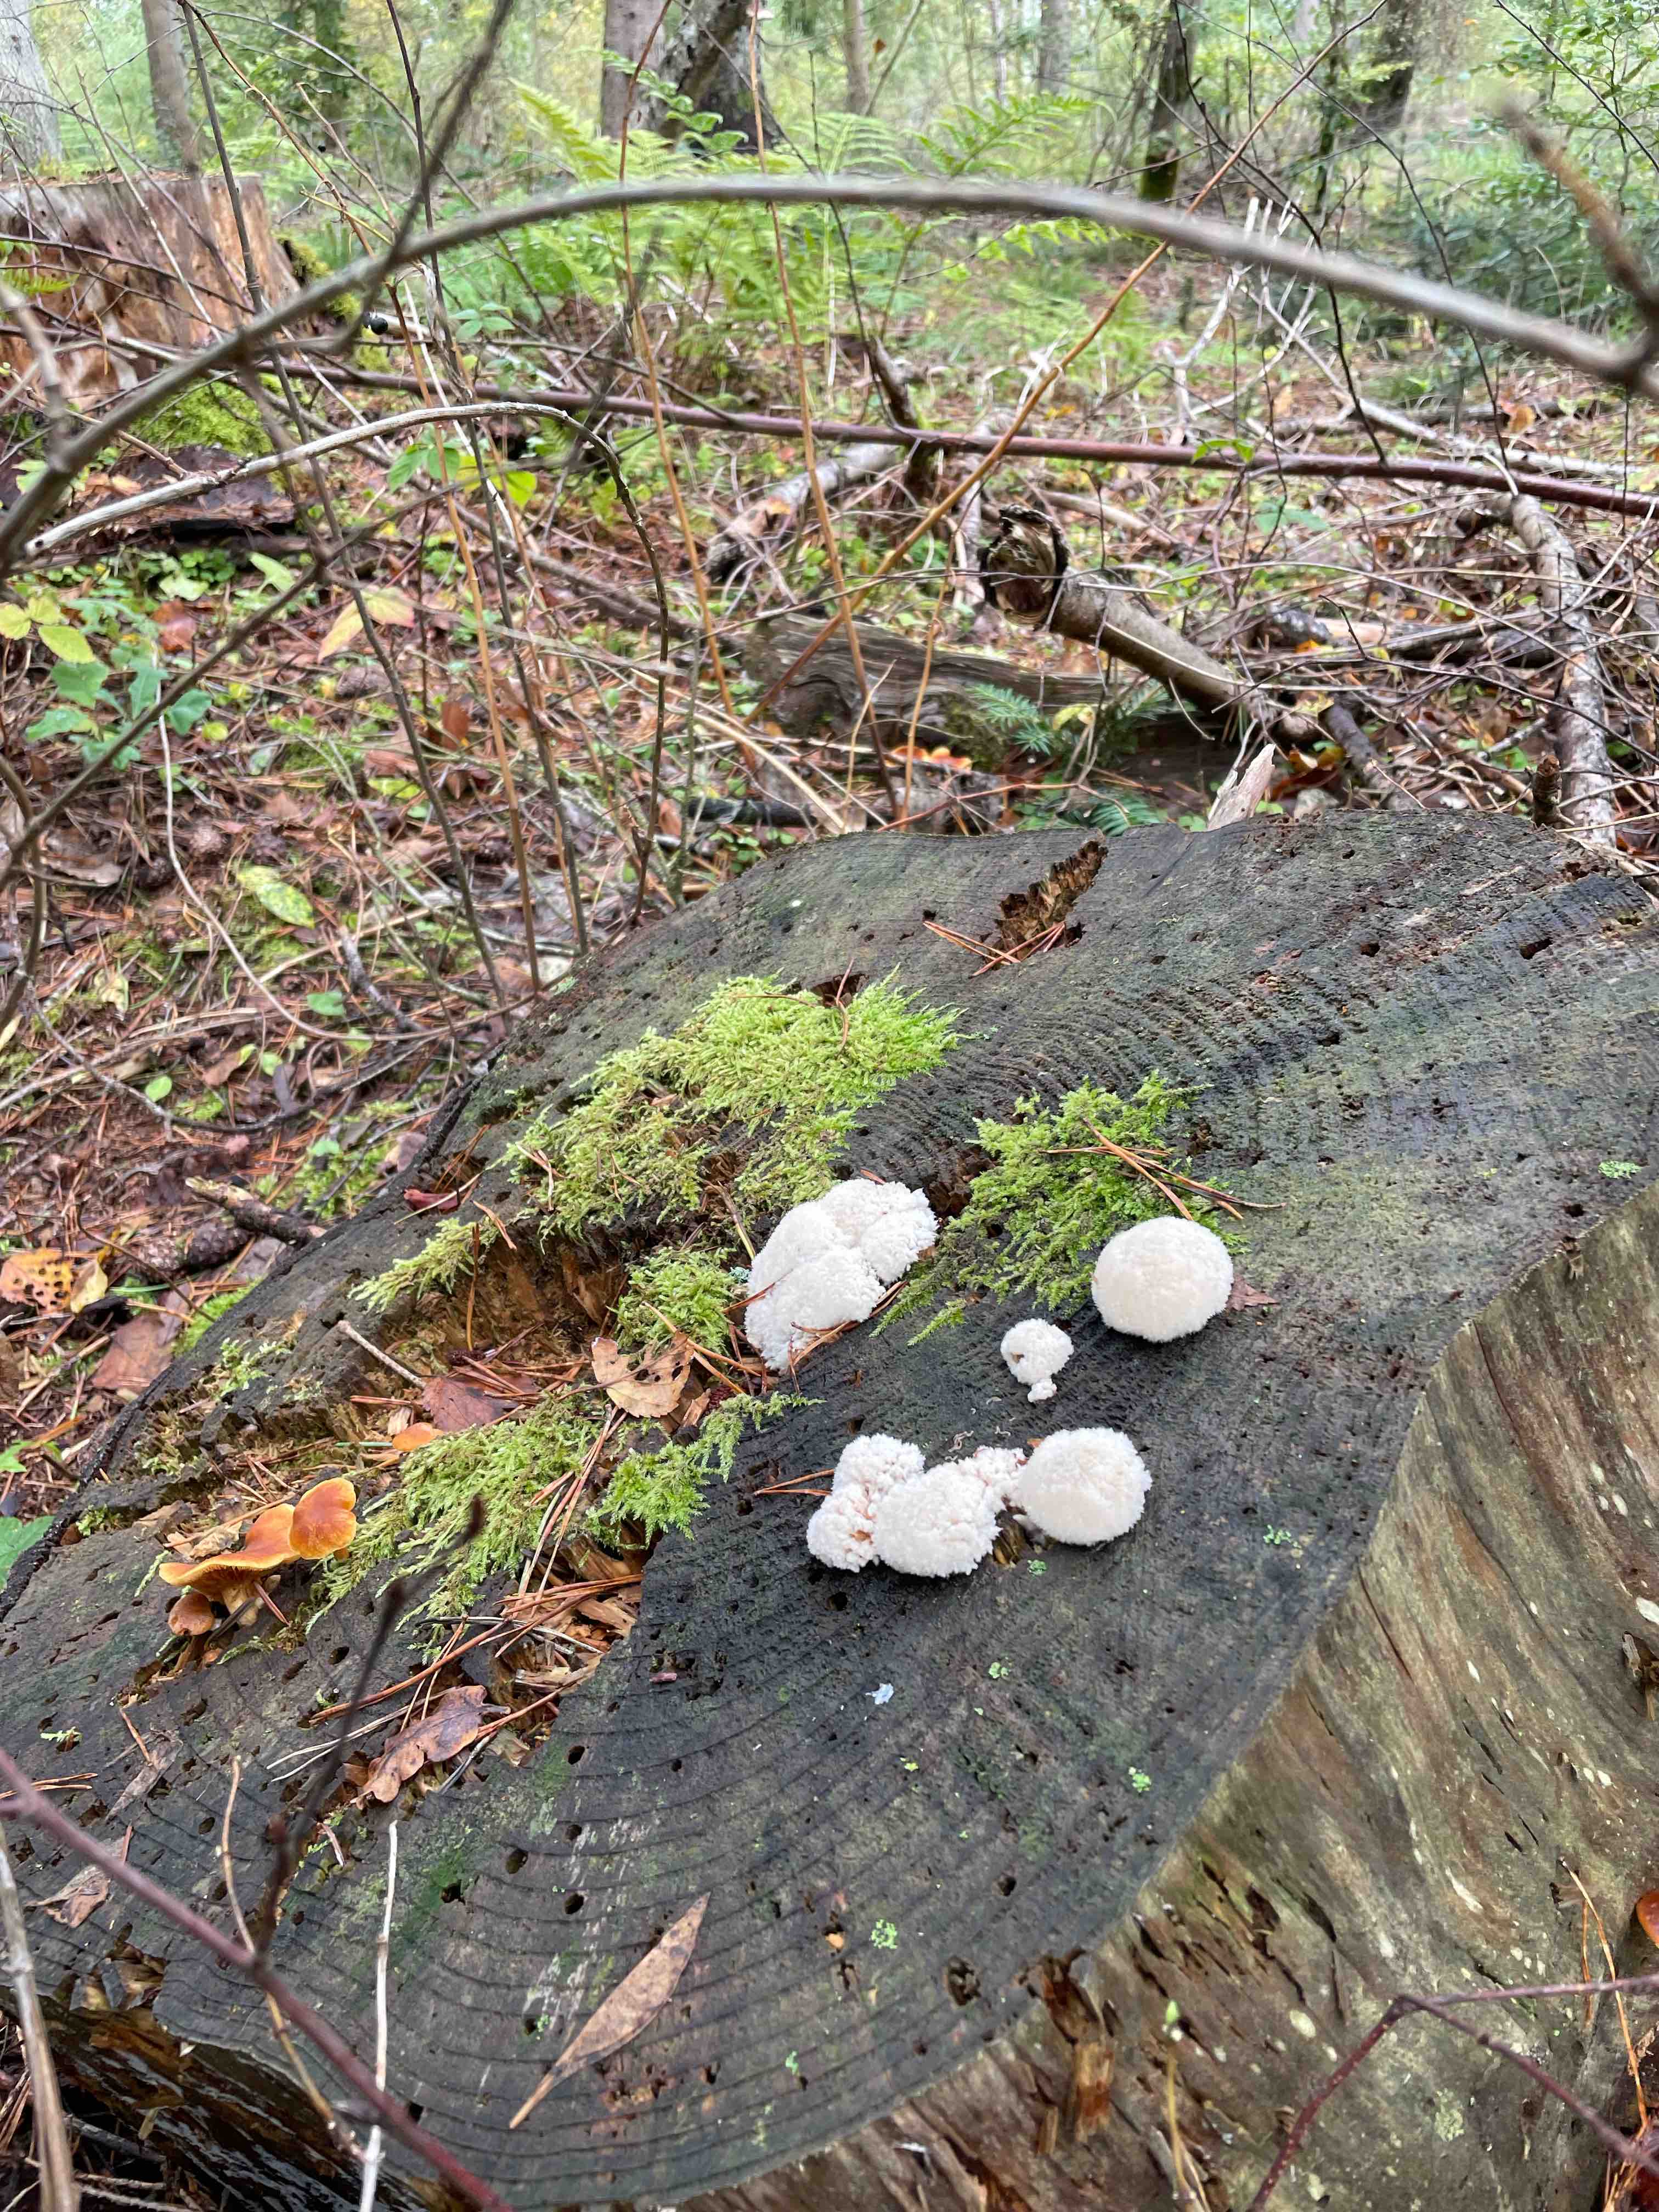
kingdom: Fungi
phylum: Basidiomycota
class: Agaricomycetes
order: Polyporales
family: Dacryobolaceae
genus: Postia
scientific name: Postia ptychogaster
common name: støvende kødporesvamp
